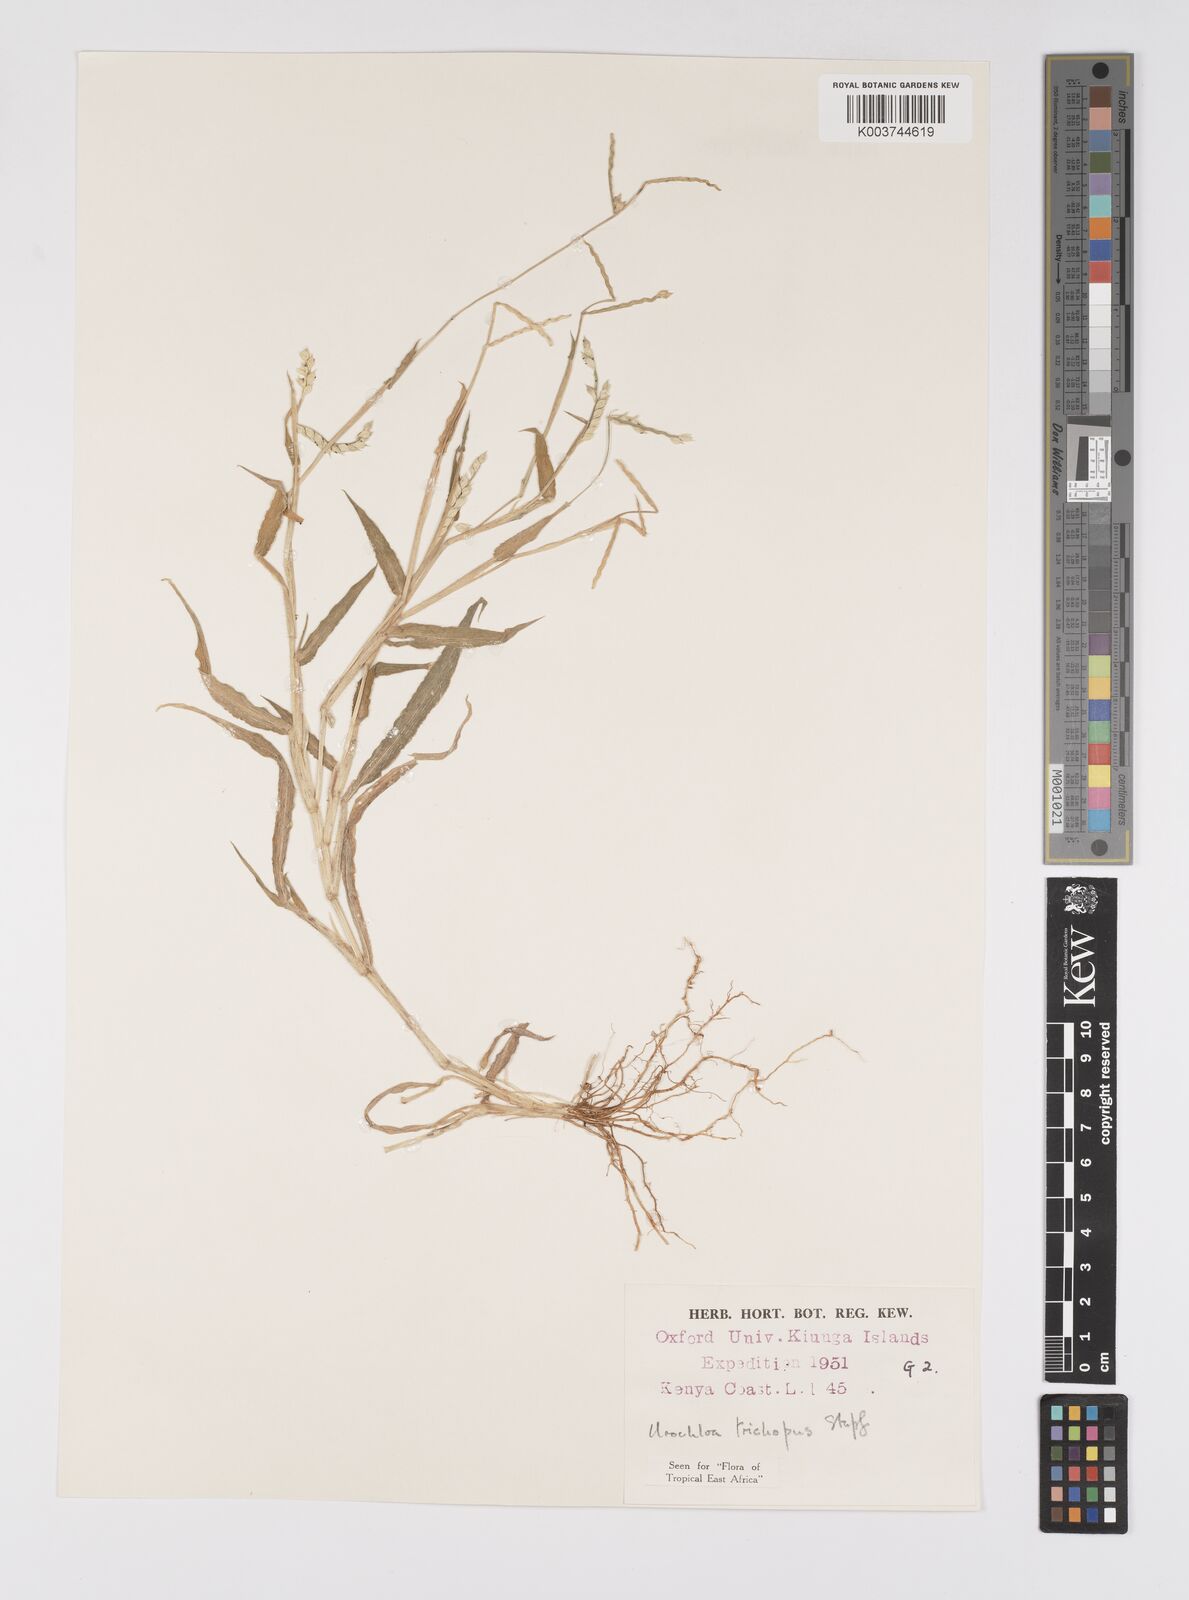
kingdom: Plantae
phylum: Tracheophyta
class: Liliopsida
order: Poales
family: Poaceae
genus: Urochloa
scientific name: Urochloa trichopus
